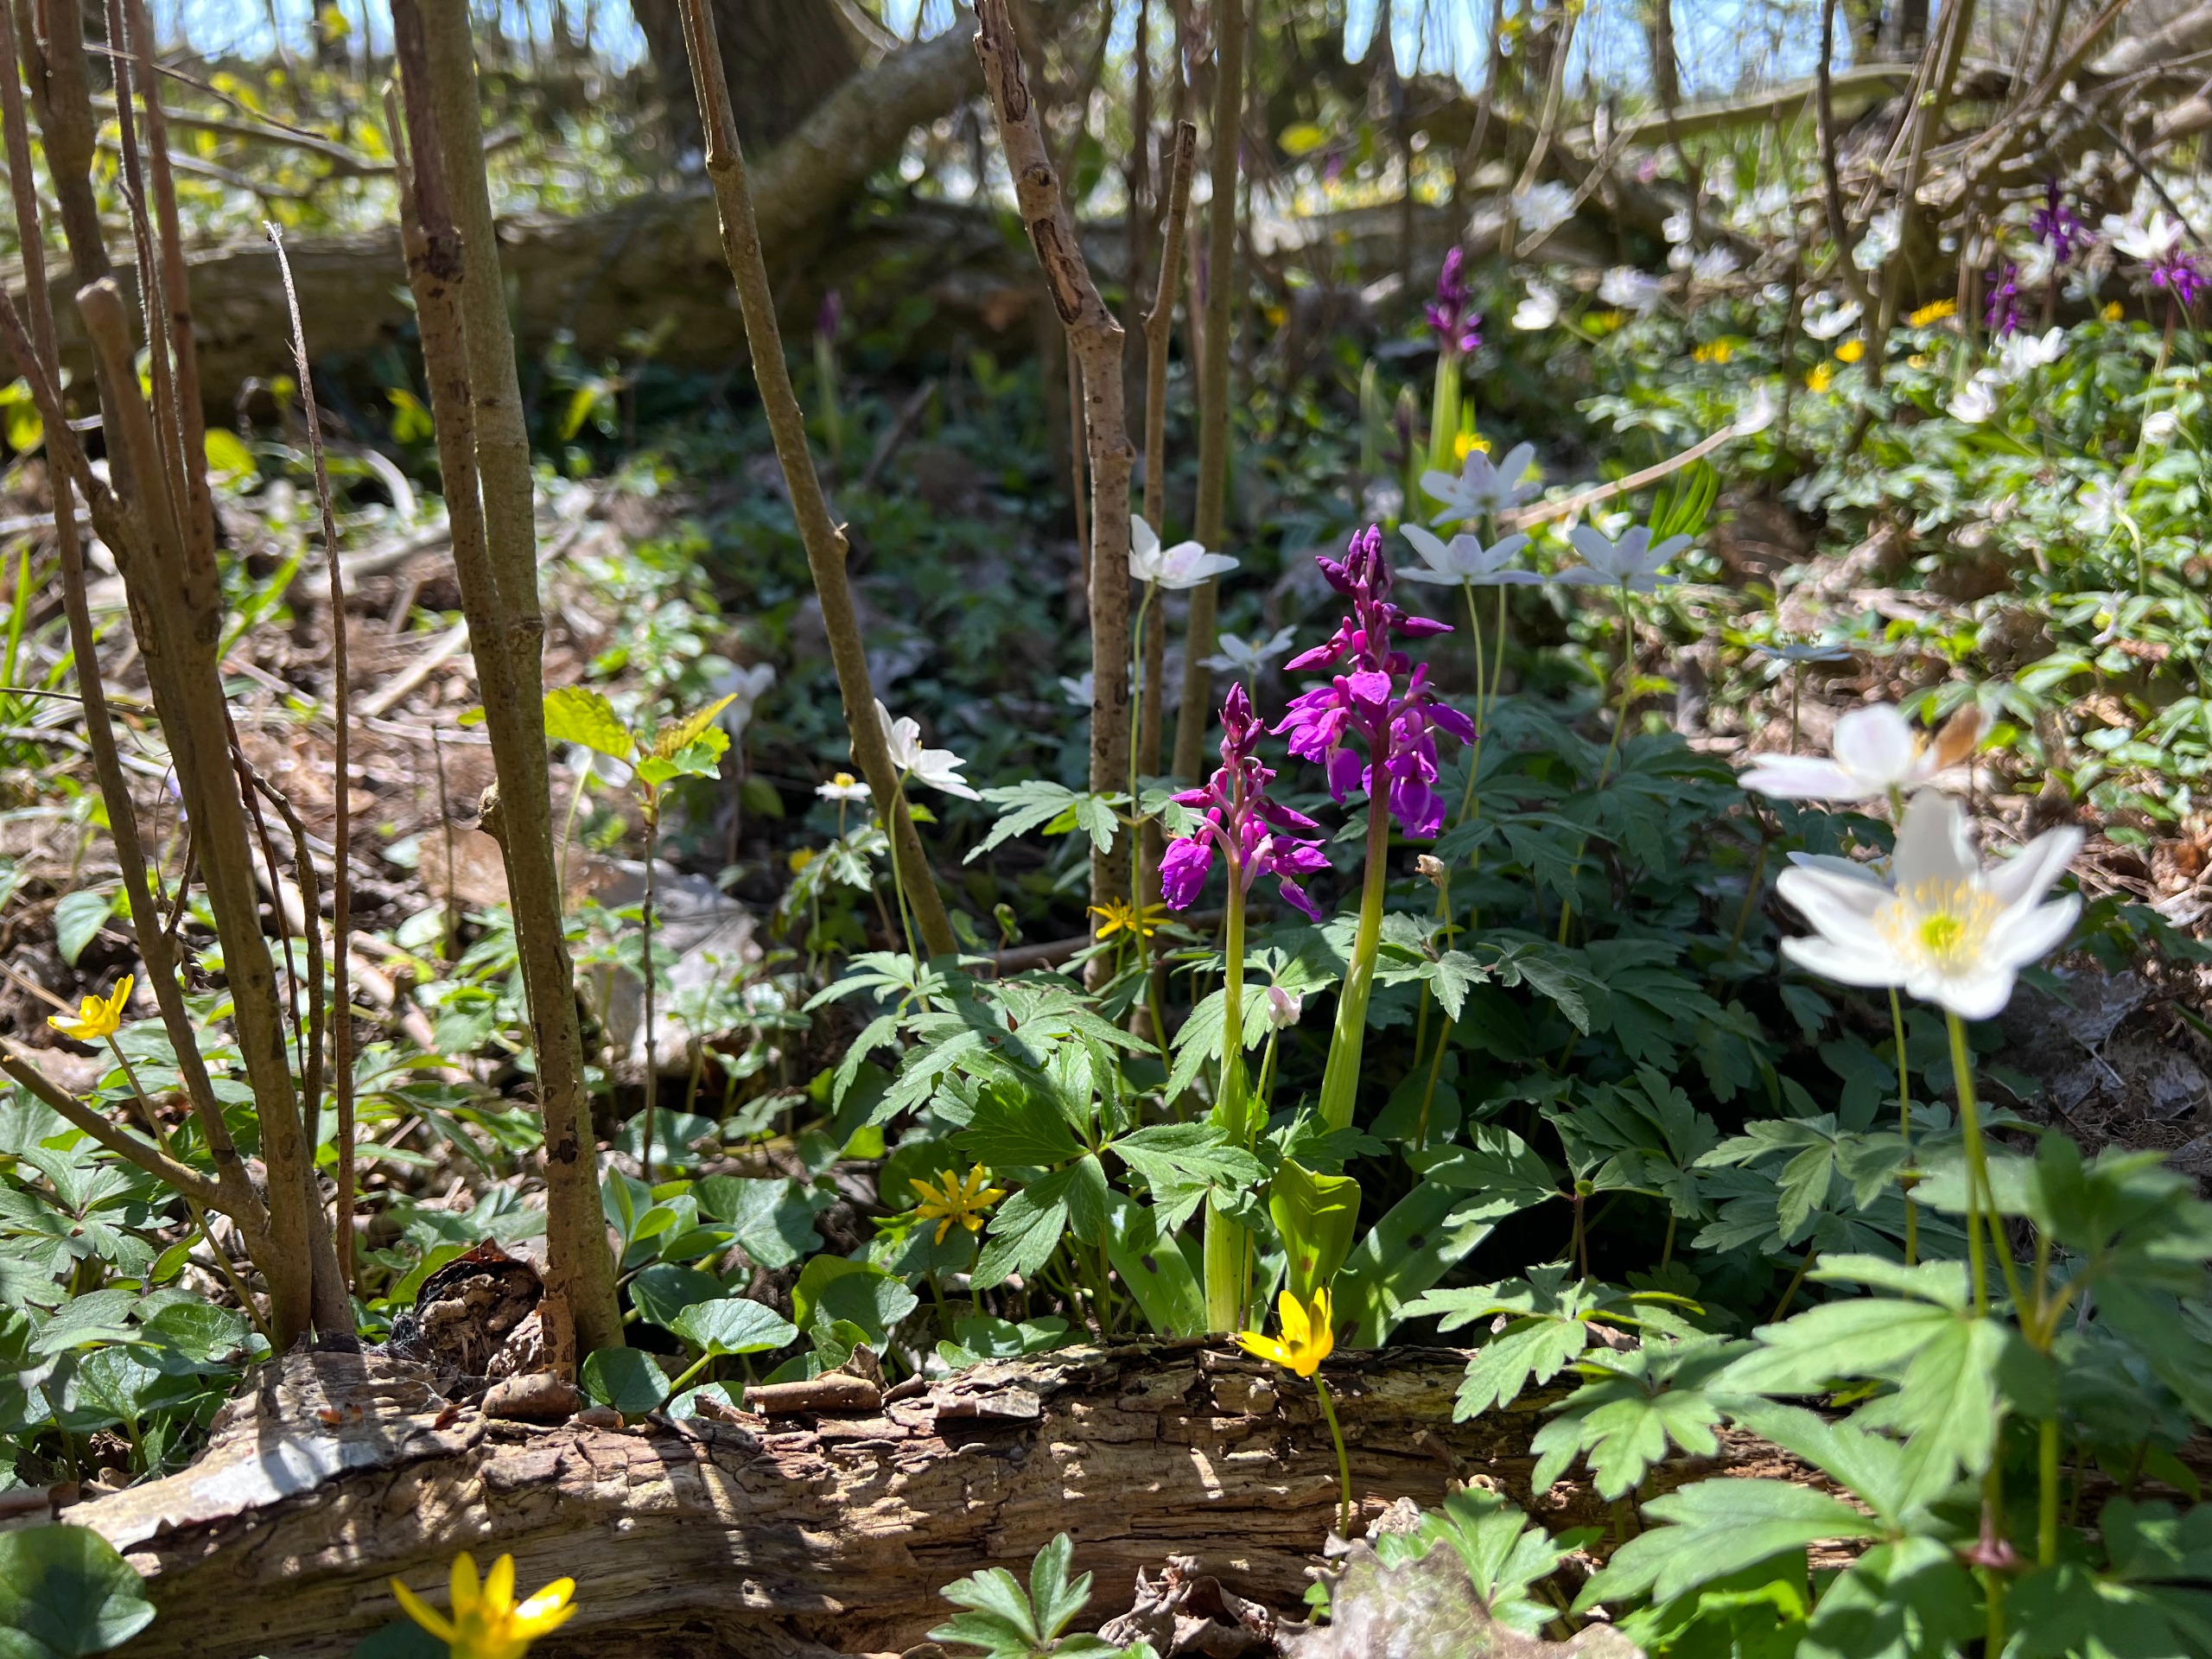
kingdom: Plantae
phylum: Tracheophyta
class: Liliopsida
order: Asparagales
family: Orchidaceae
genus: Orchis
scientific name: Orchis mascula
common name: Tyndakset gøgeurt
